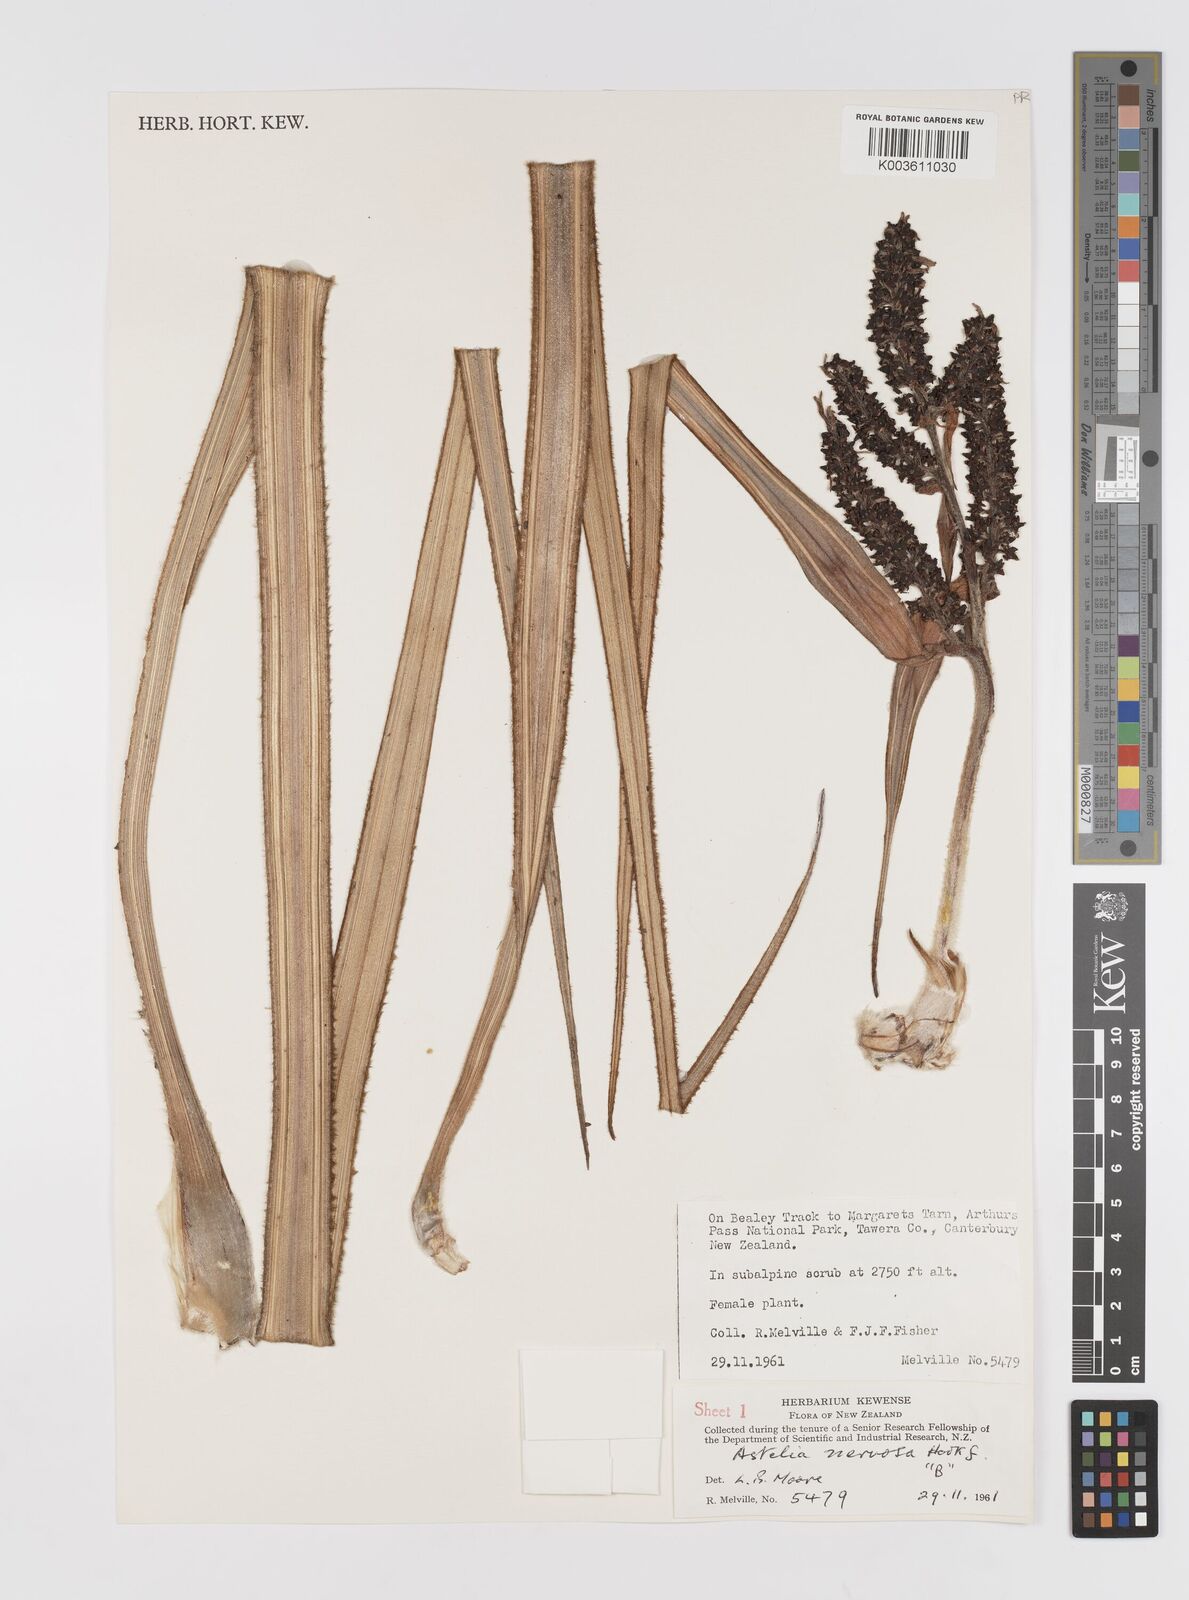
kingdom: Plantae
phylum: Tracheophyta
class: Liliopsida
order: Asparagales
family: Asteliaceae
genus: Astelia
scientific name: Astelia nervosa
